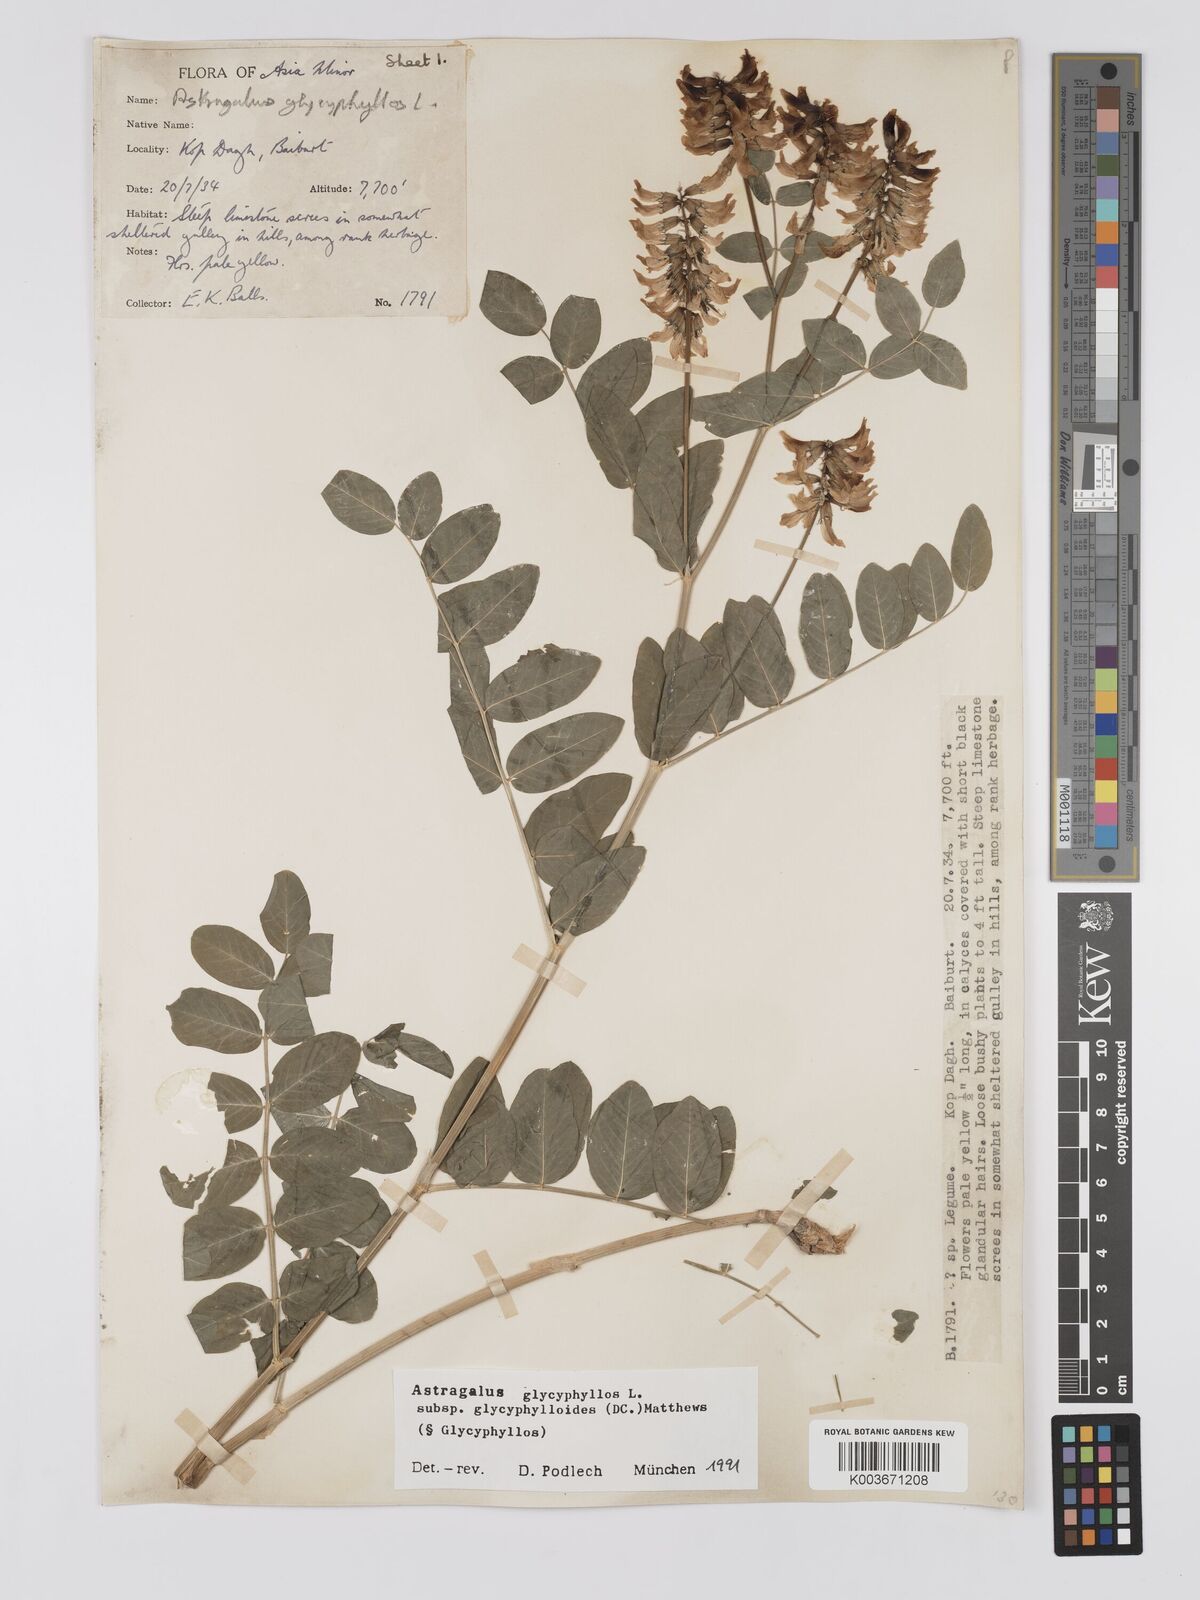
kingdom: Plantae
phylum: Tracheophyta
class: Magnoliopsida
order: Fabales
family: Fabaceae
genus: Astragalus
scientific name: Astragalus glycyphyllos
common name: Wild liquorice
